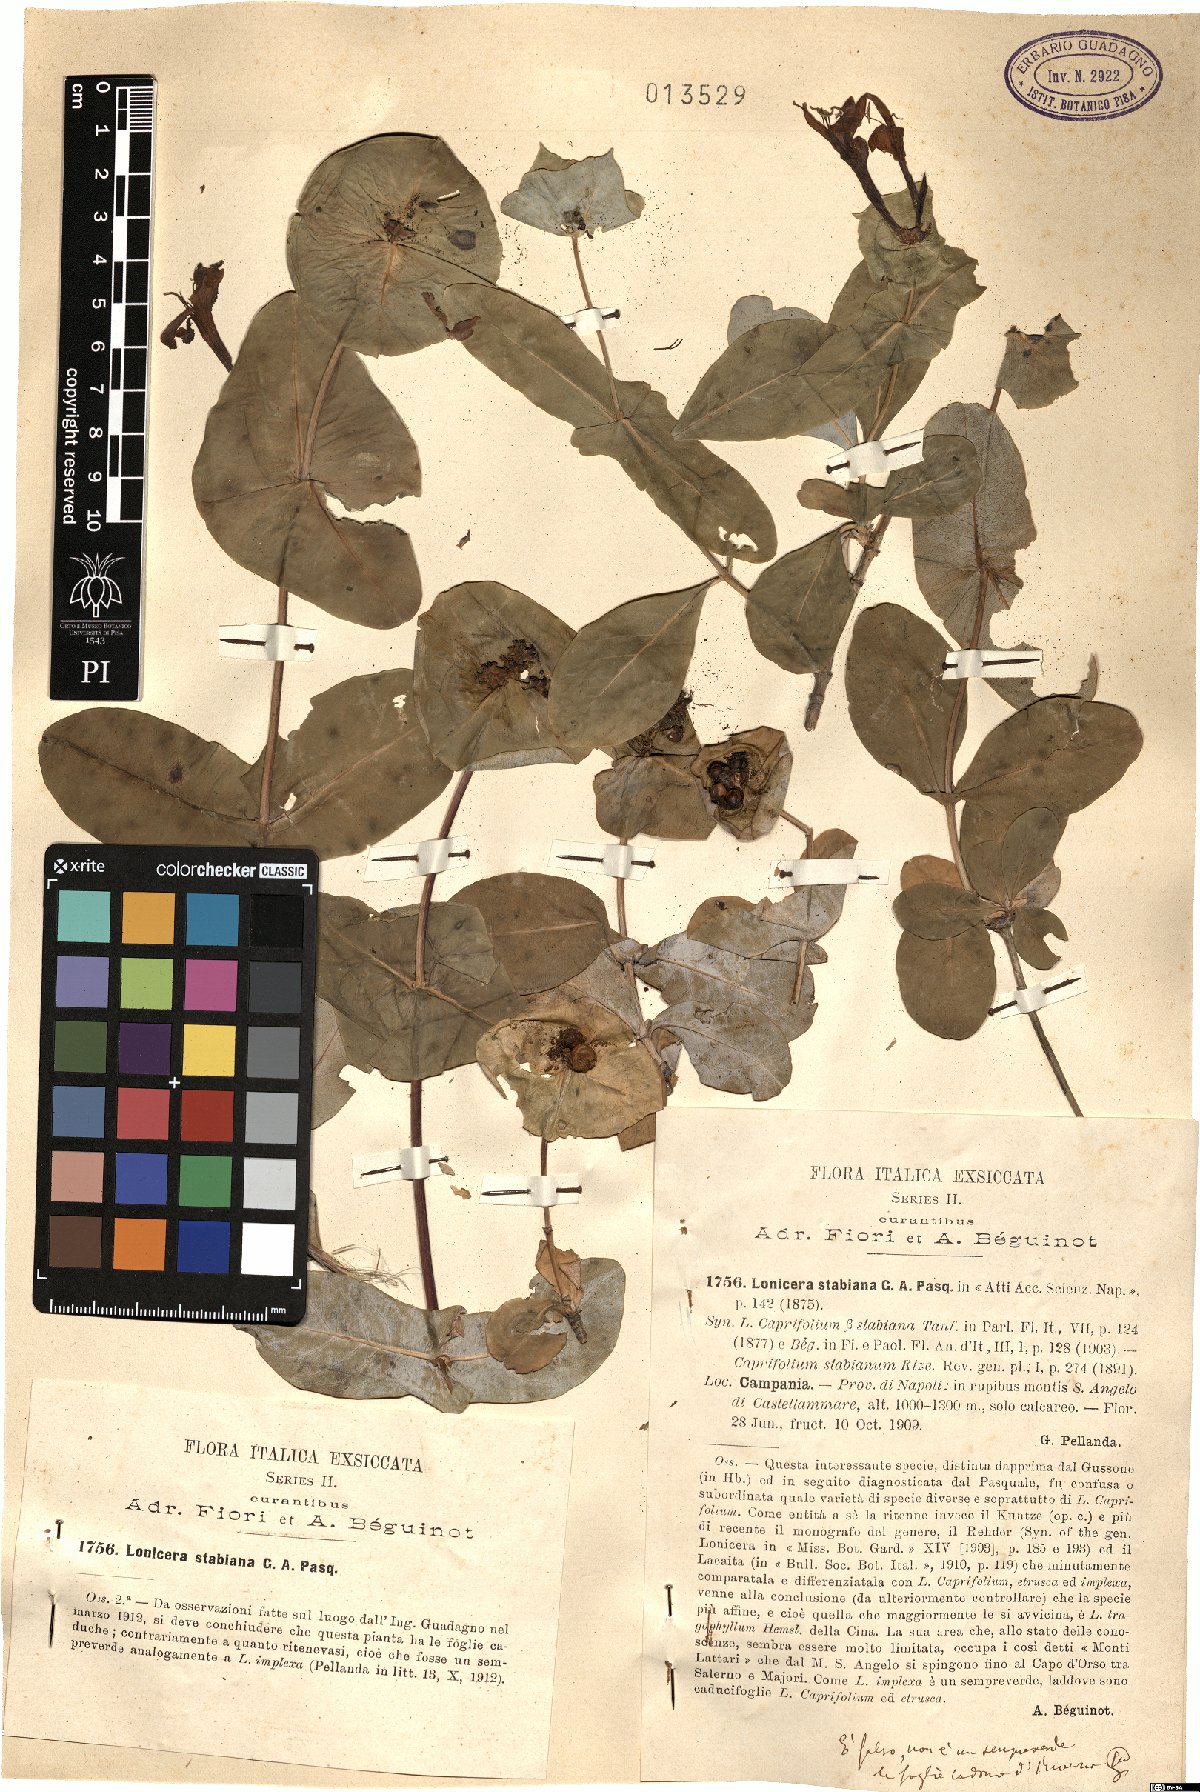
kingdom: Plantae
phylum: Tracheophyta
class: Magnoliopsida
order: Dipsacales
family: Caprifoliaceae
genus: Lonicera
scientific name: Lonicera stabiana
